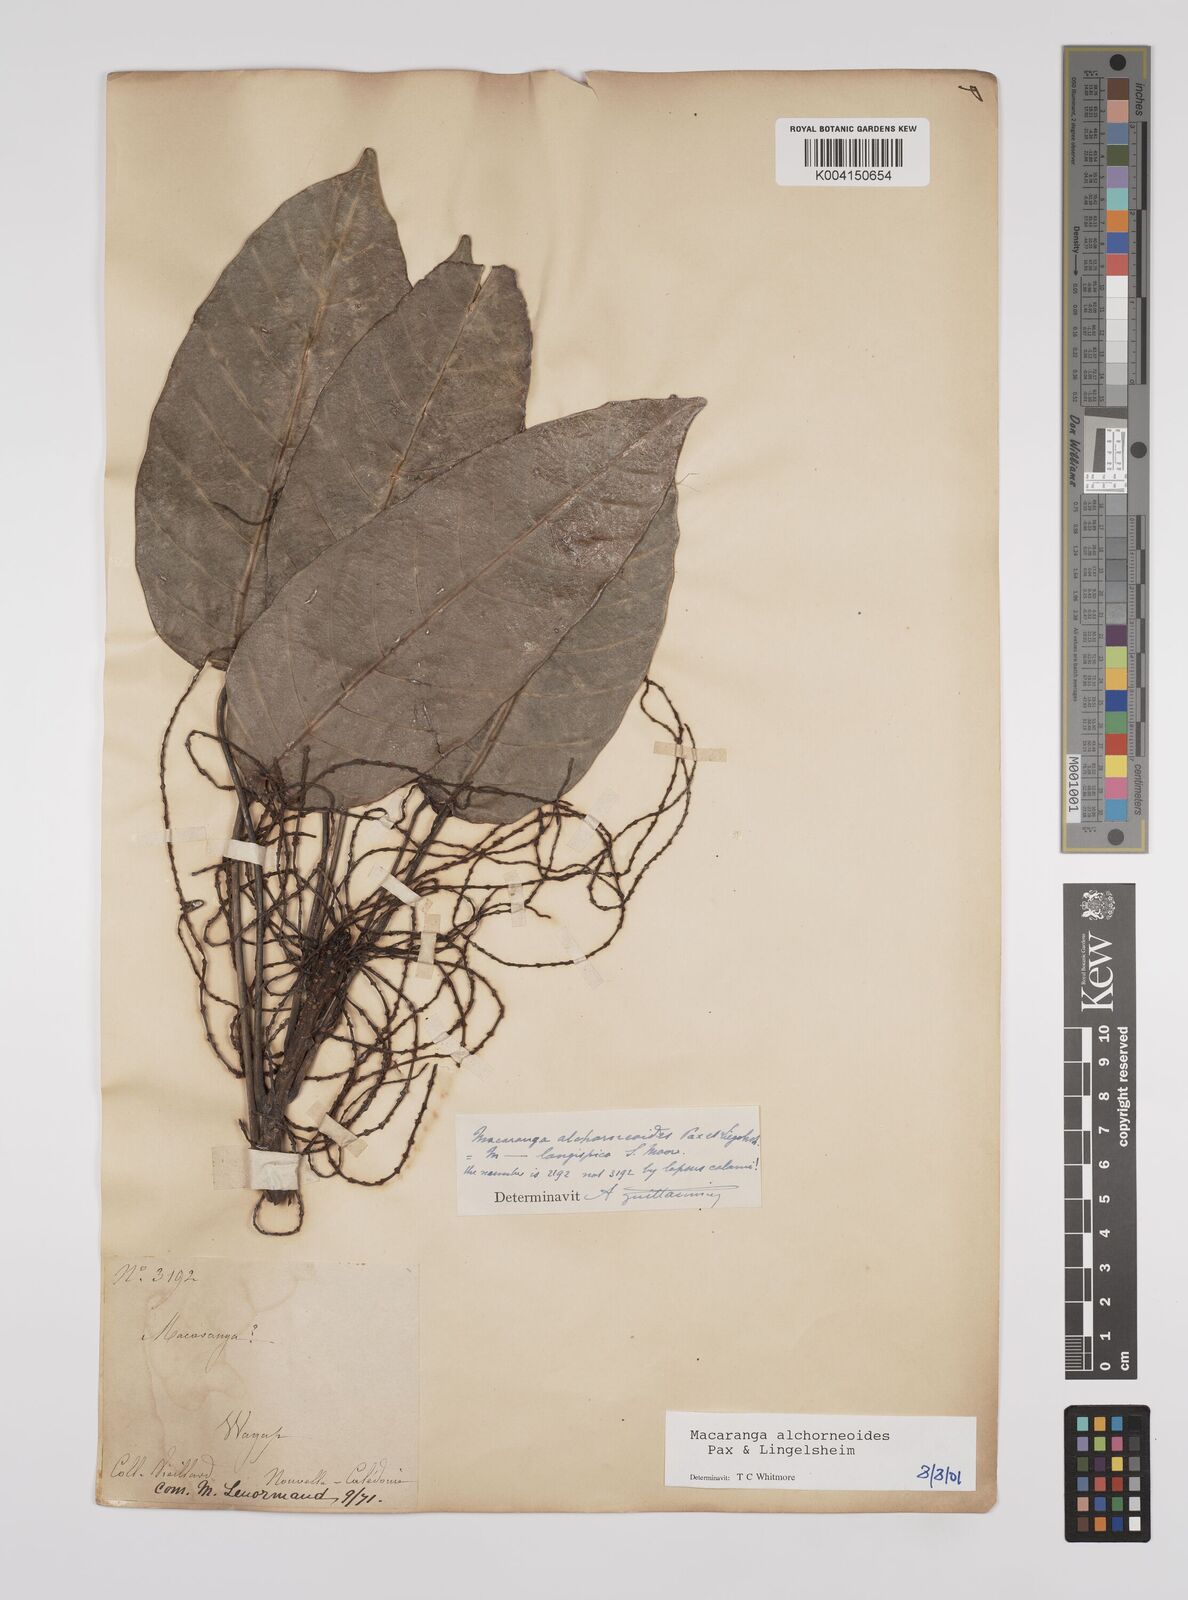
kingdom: Plantae
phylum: Tracheophyta
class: Magnoliopsida
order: Malpighiales
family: Euphorbiaceae
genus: Macaranga
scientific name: Macaranga alchorneoides
